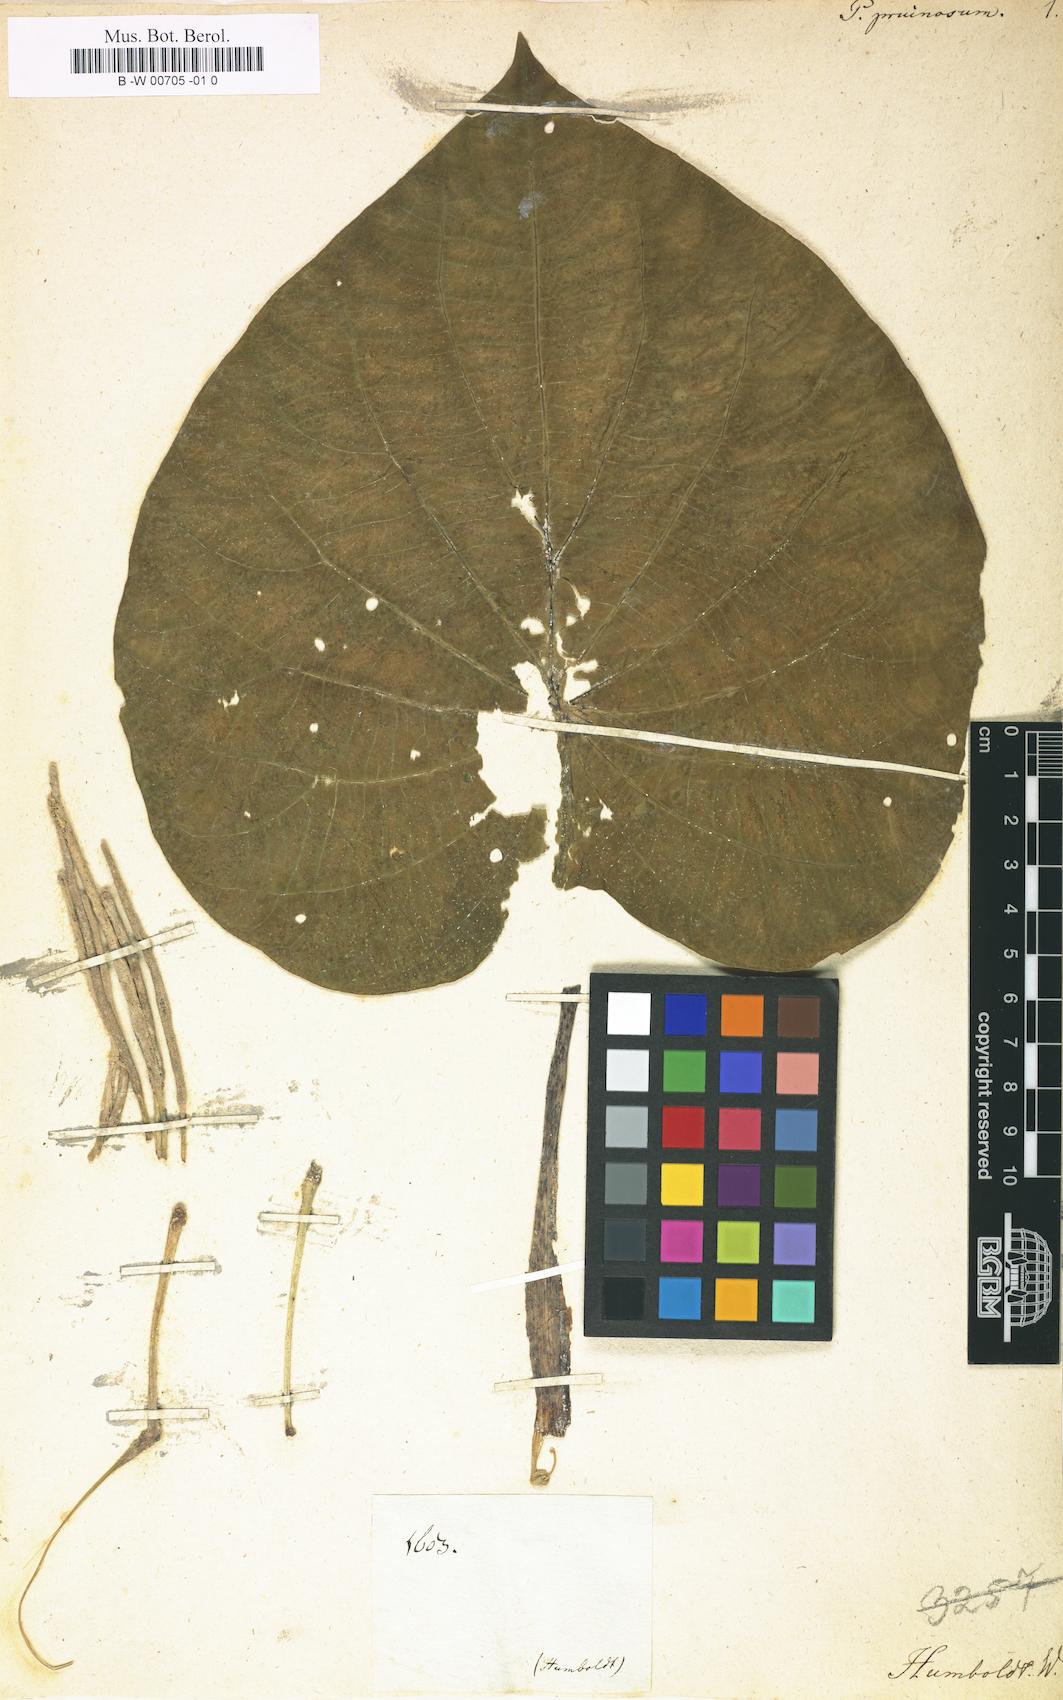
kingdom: Plantae
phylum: Tracheophyta
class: Magnoliopsida
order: Piperales
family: Piperaceae
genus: Piper
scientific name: Piper peltatum
